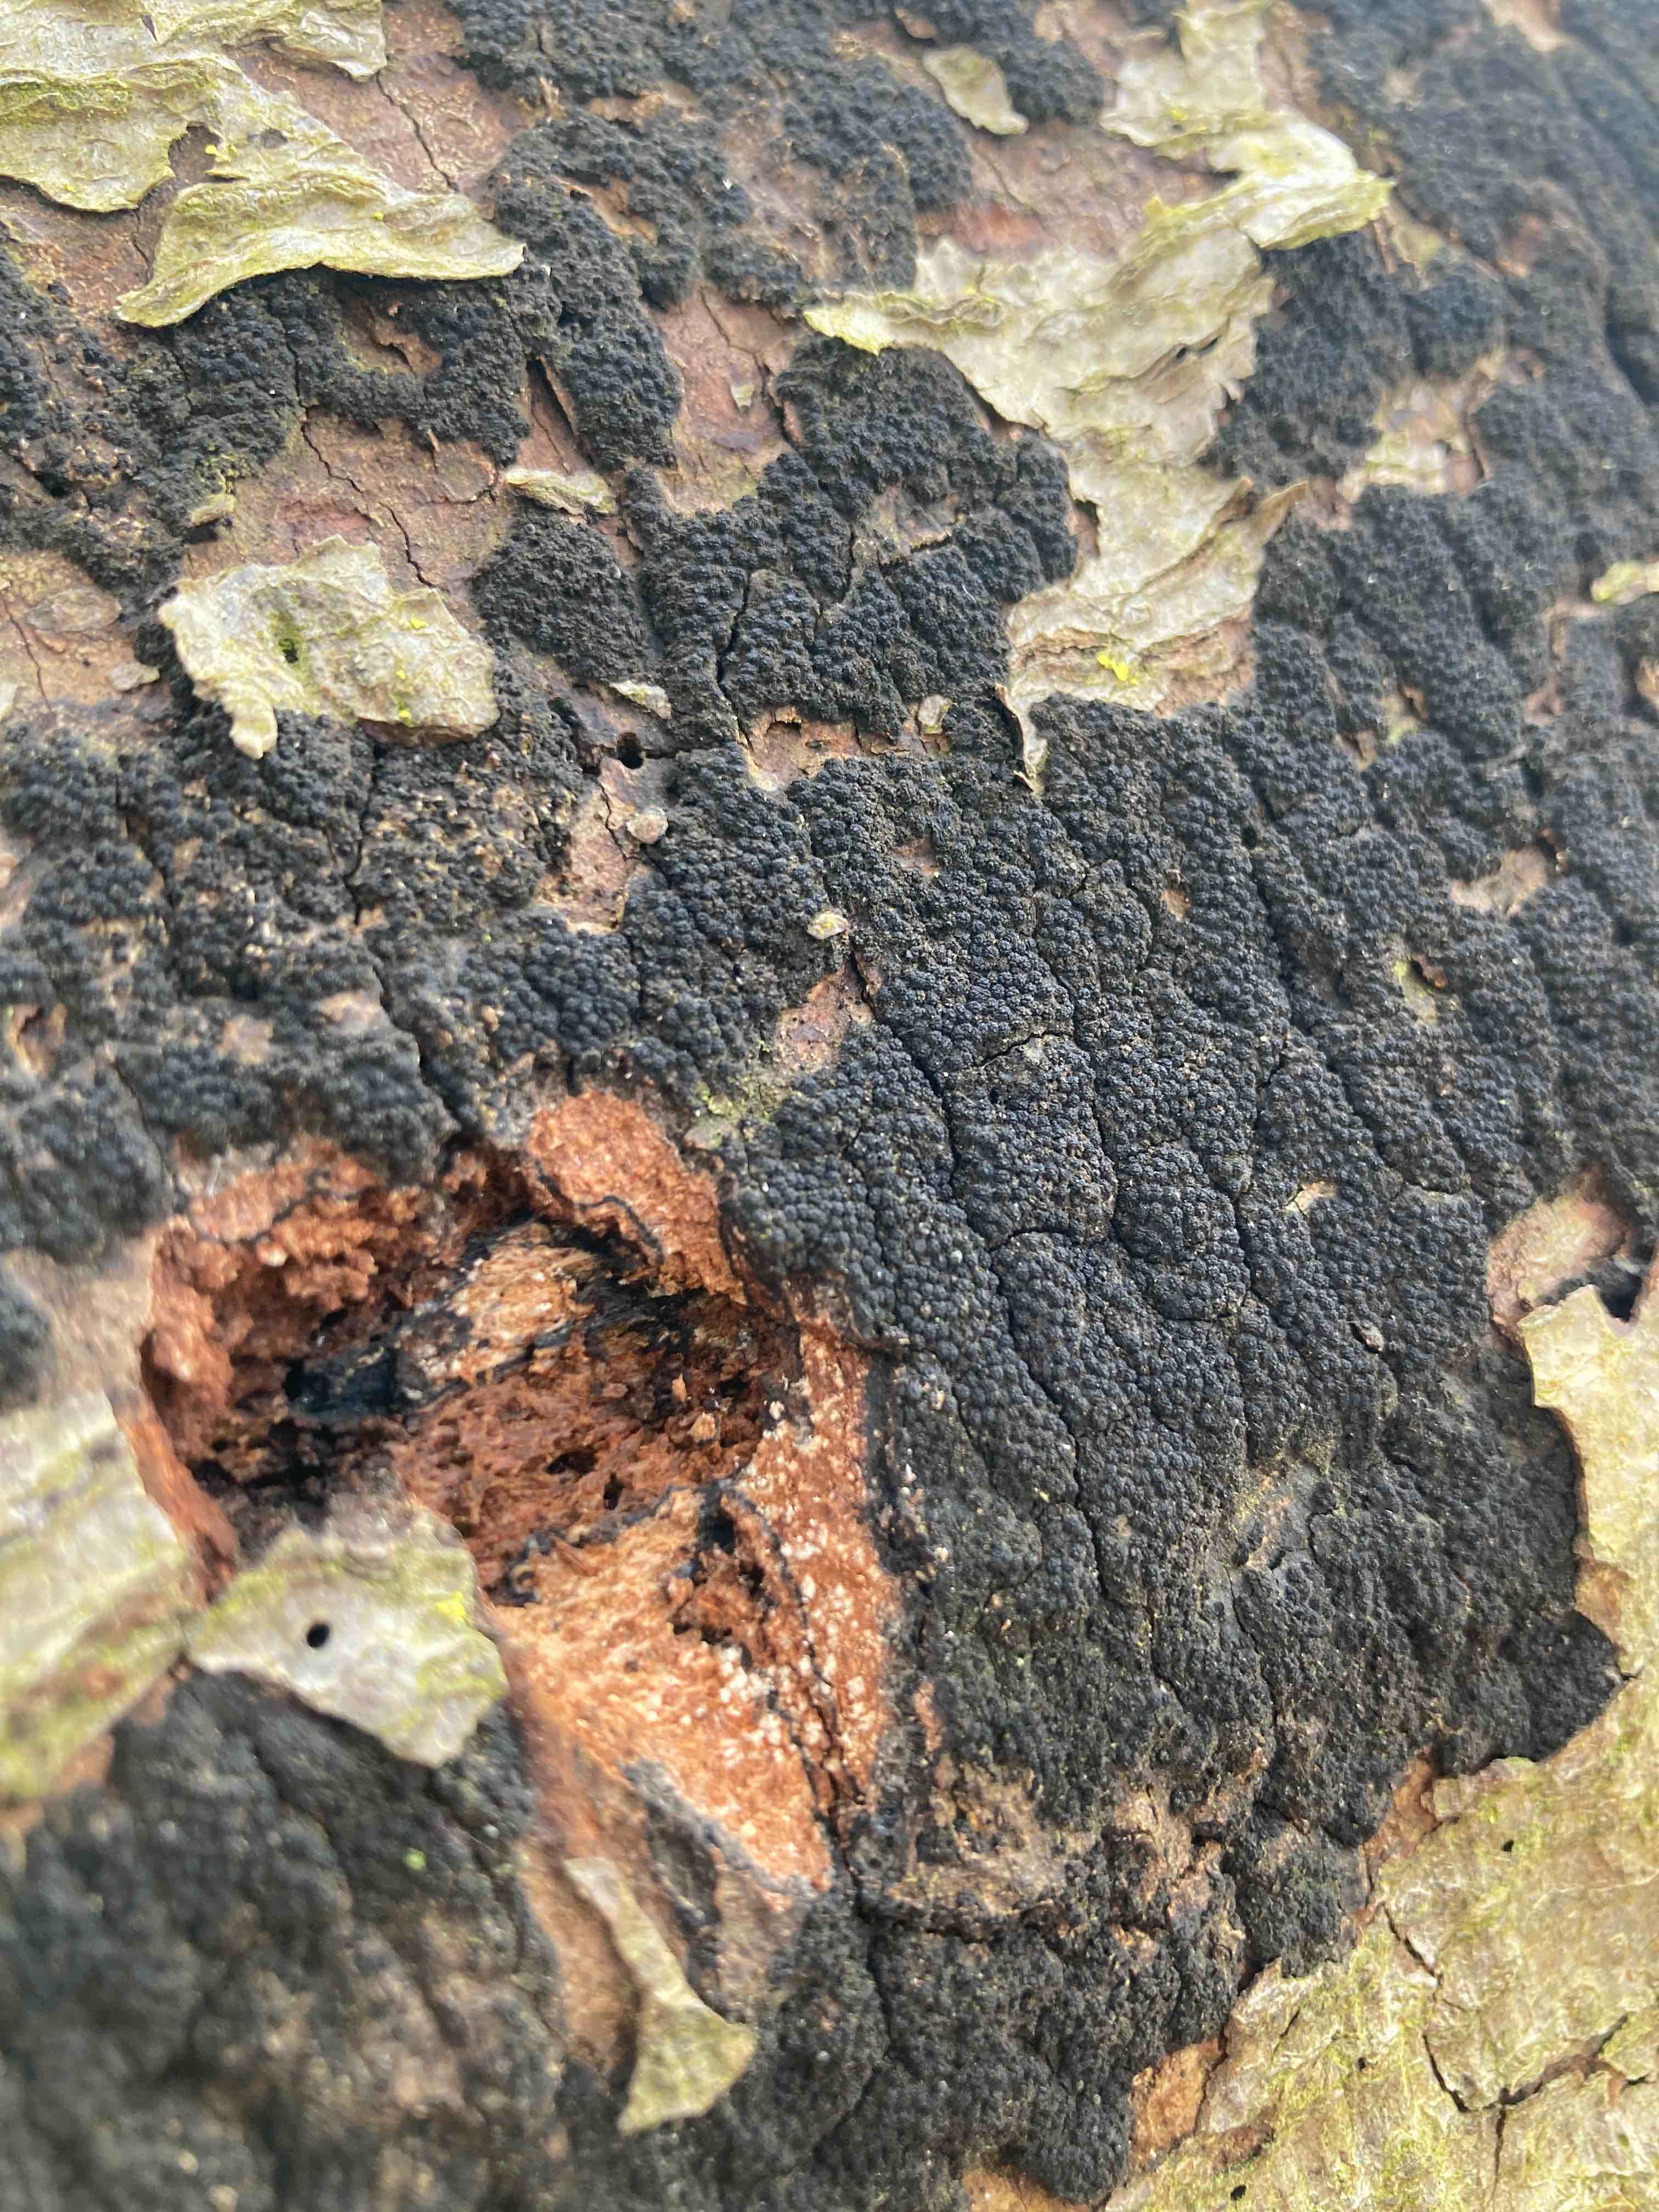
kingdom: Fungi
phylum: Ascomycota
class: Sordariomycetes
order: Xylariales
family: Diatrypaceae
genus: Eutypa
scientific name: Eutypa spinosa
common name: grov kulskorpe
